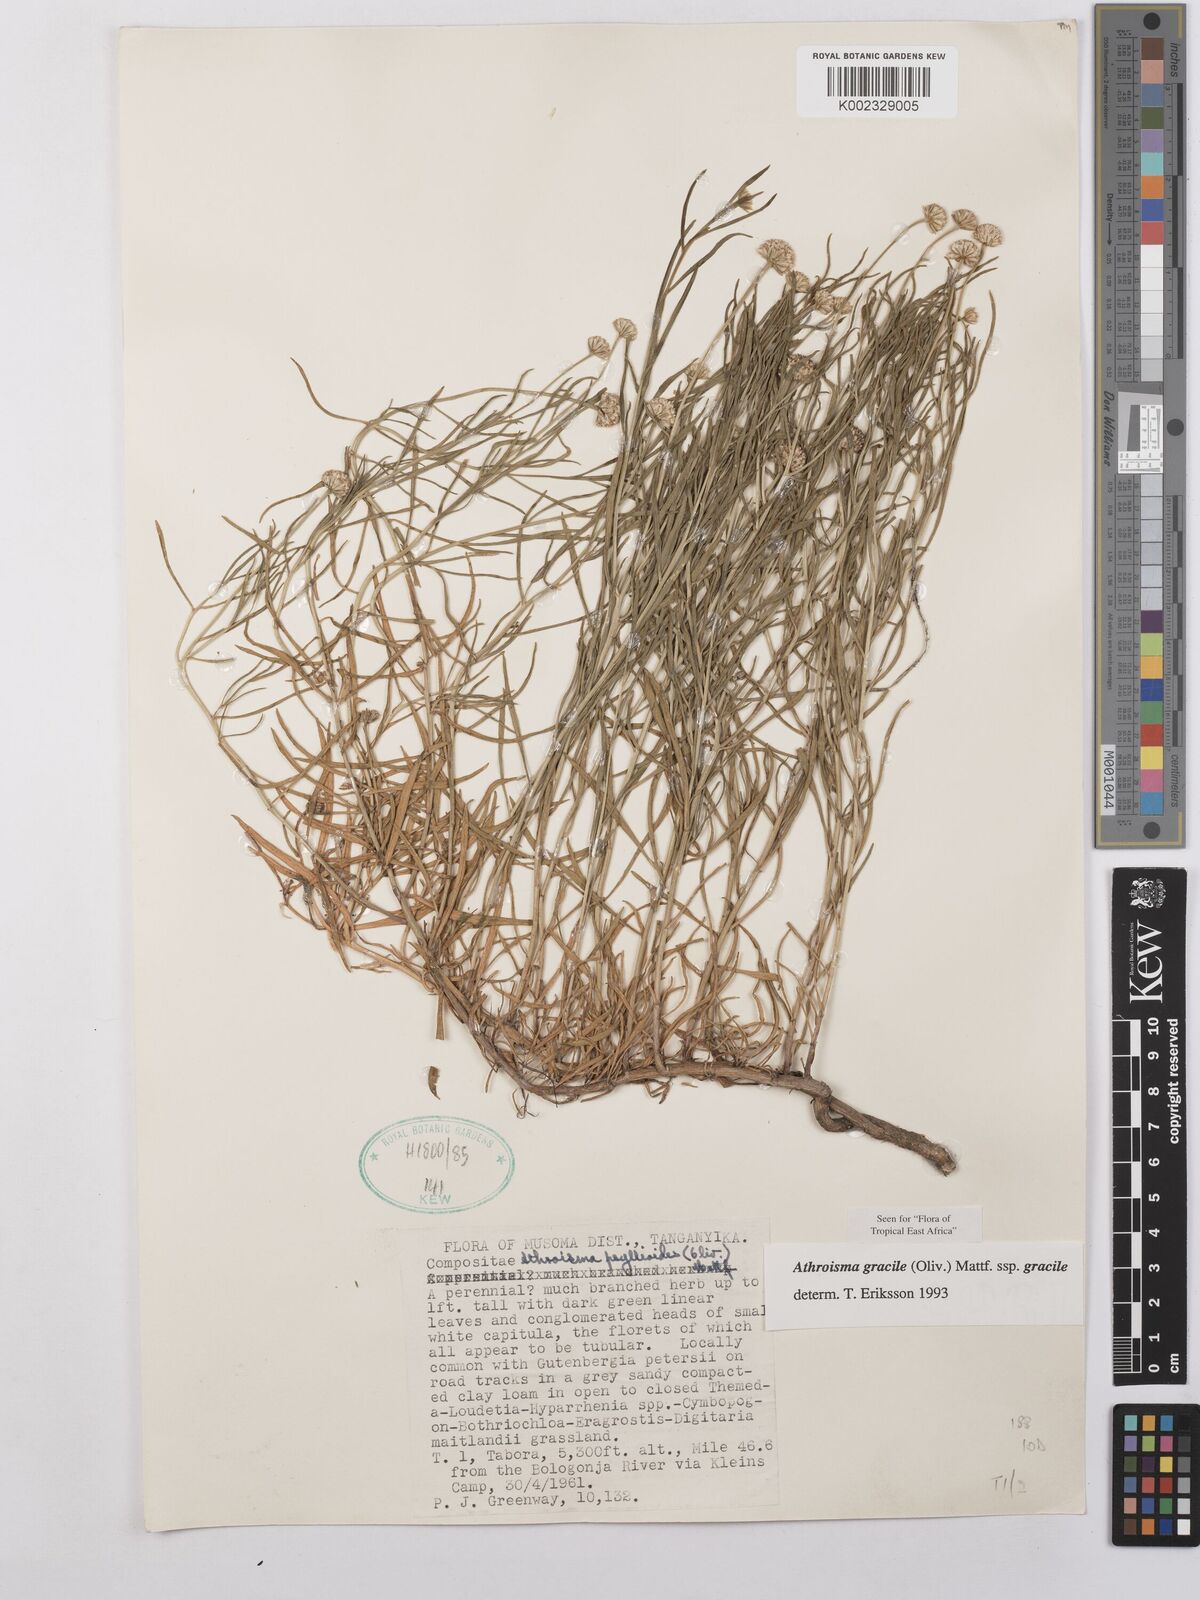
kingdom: Plantae
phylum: Tracheophyta
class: Magnoliopsida
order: Asterales
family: Asteraceae
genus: Athroisma
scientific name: Athroisma gracile
